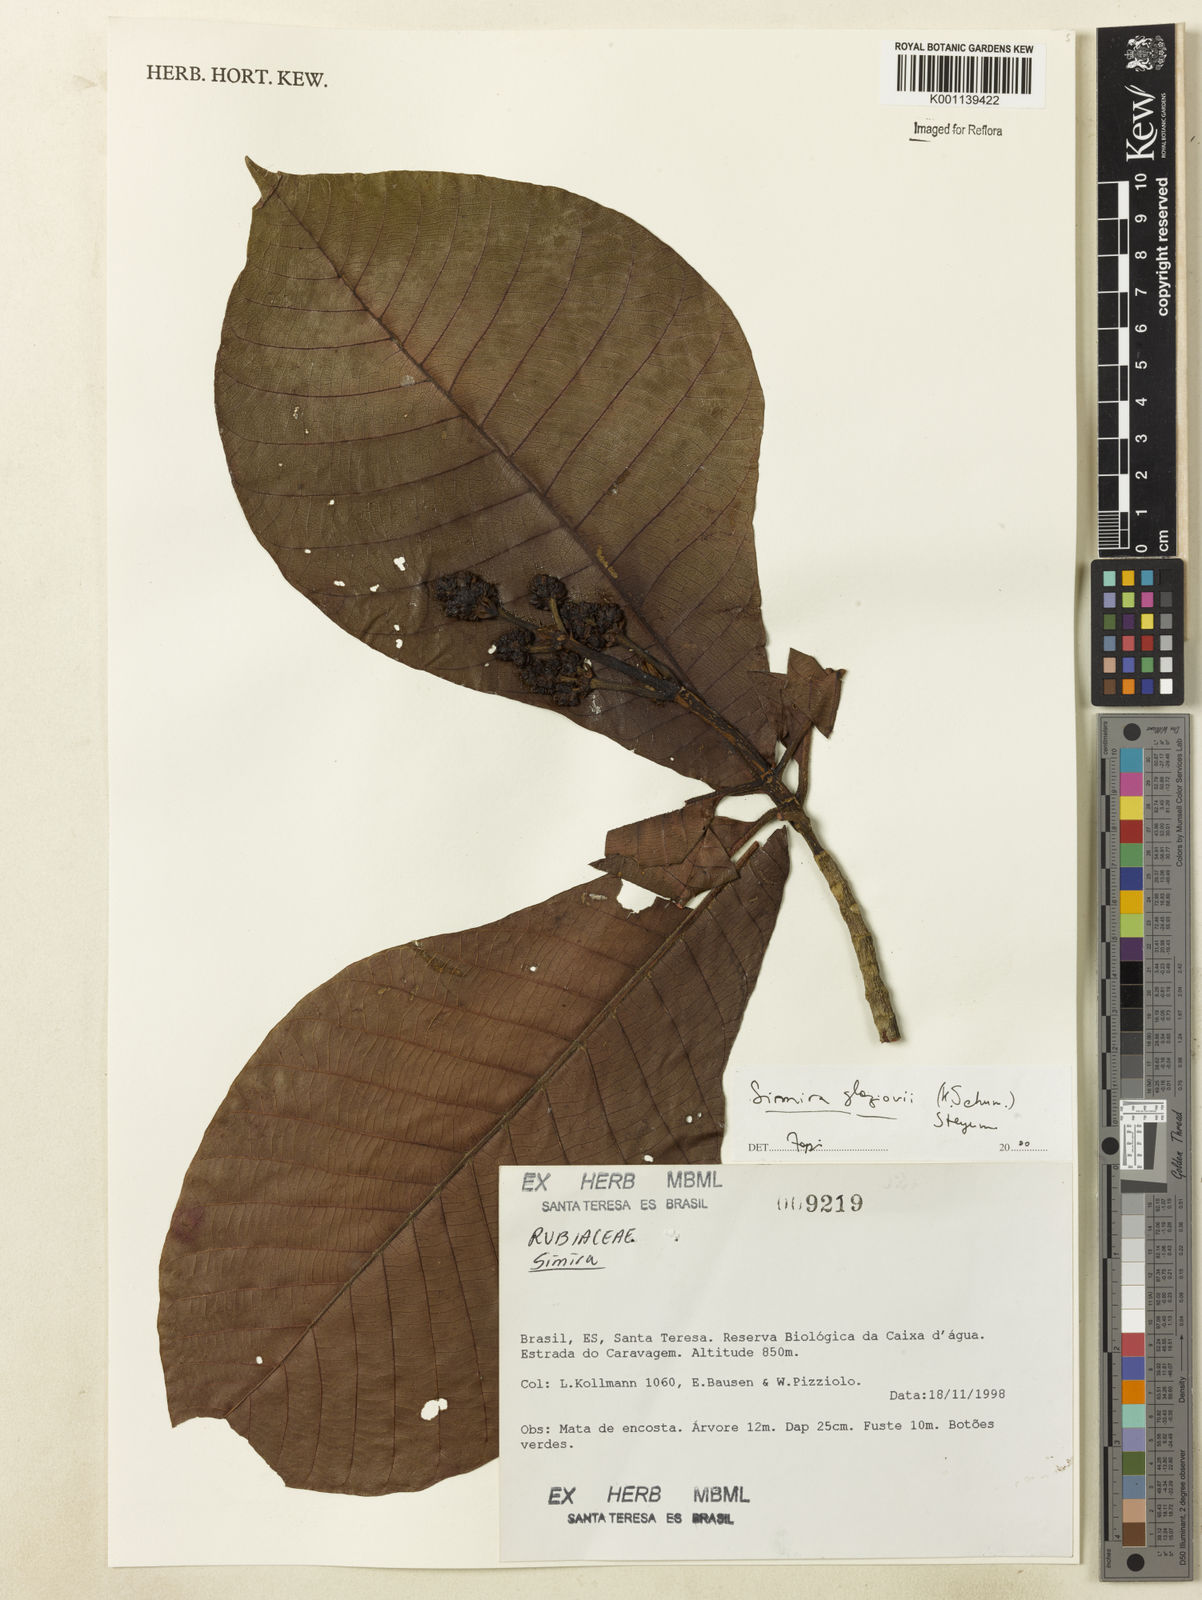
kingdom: Plantae
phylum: Tracheophyta
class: Magnoliopsida
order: Gentianales
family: Rubiaceae
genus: Simira
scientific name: Simira alba
